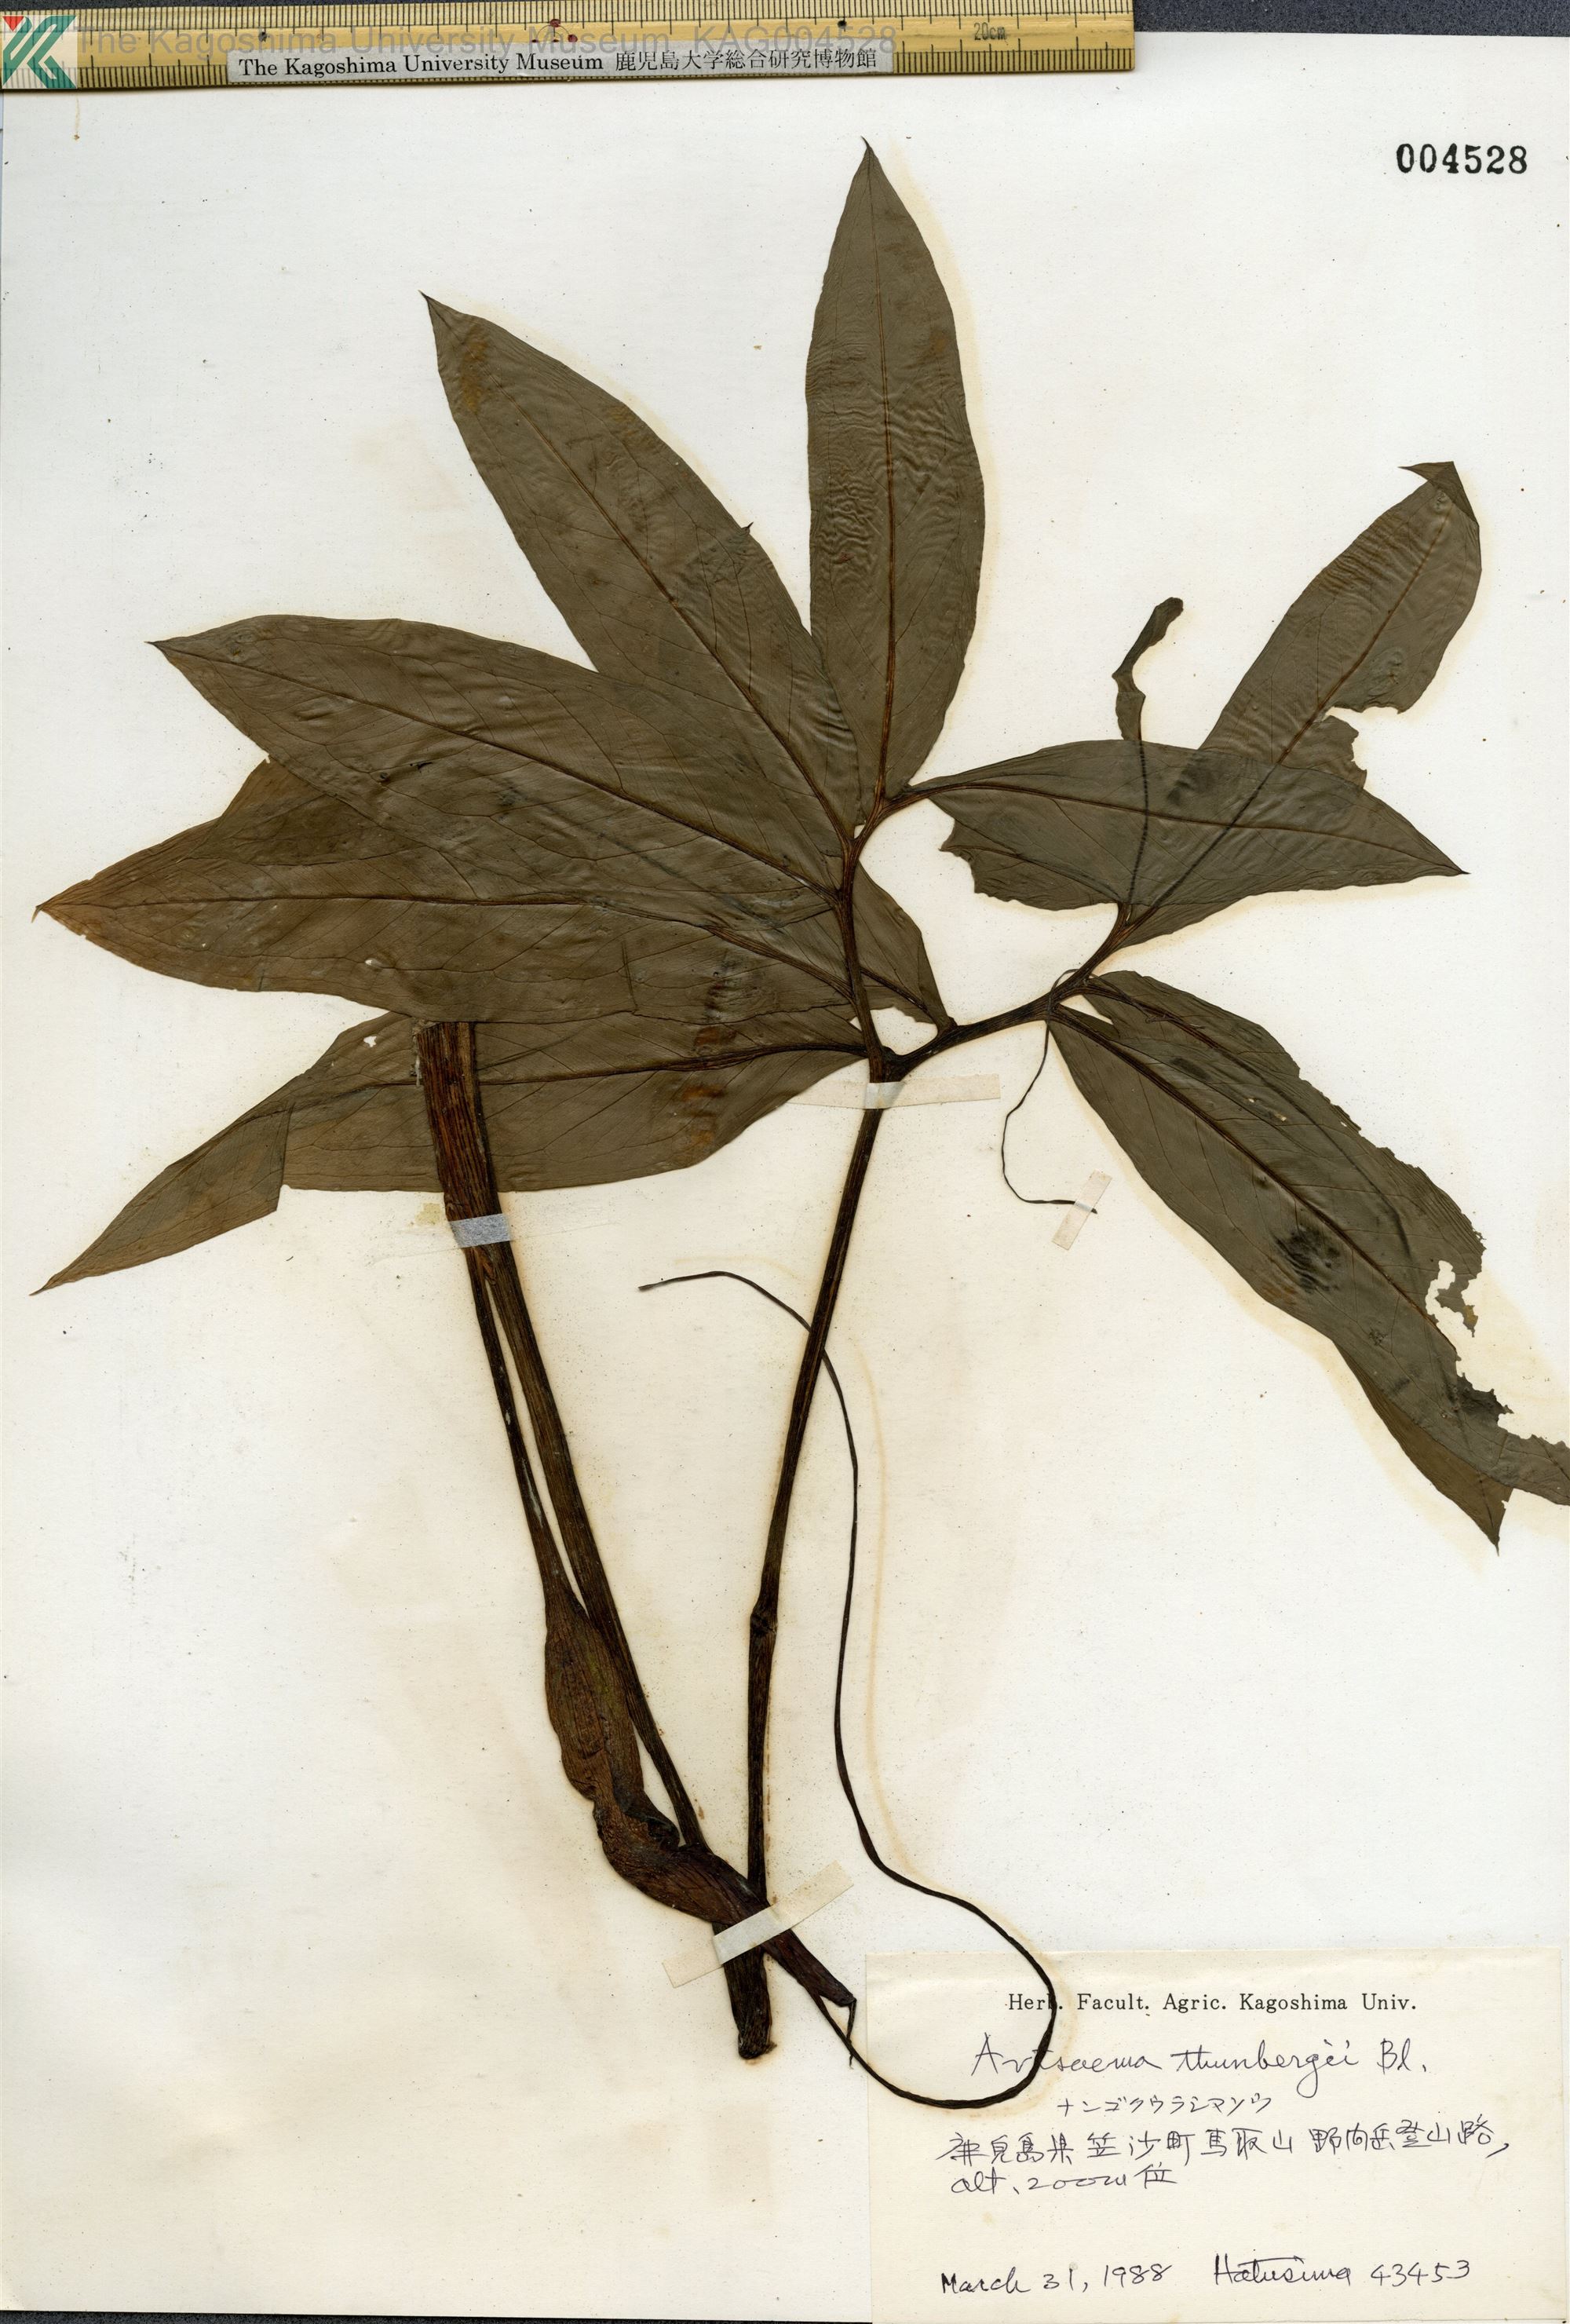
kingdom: Plantae
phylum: Tracheophyta
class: Liliopsida
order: Alismatales
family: Araceae
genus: Arisaema
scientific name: Arisaema thunbergii
